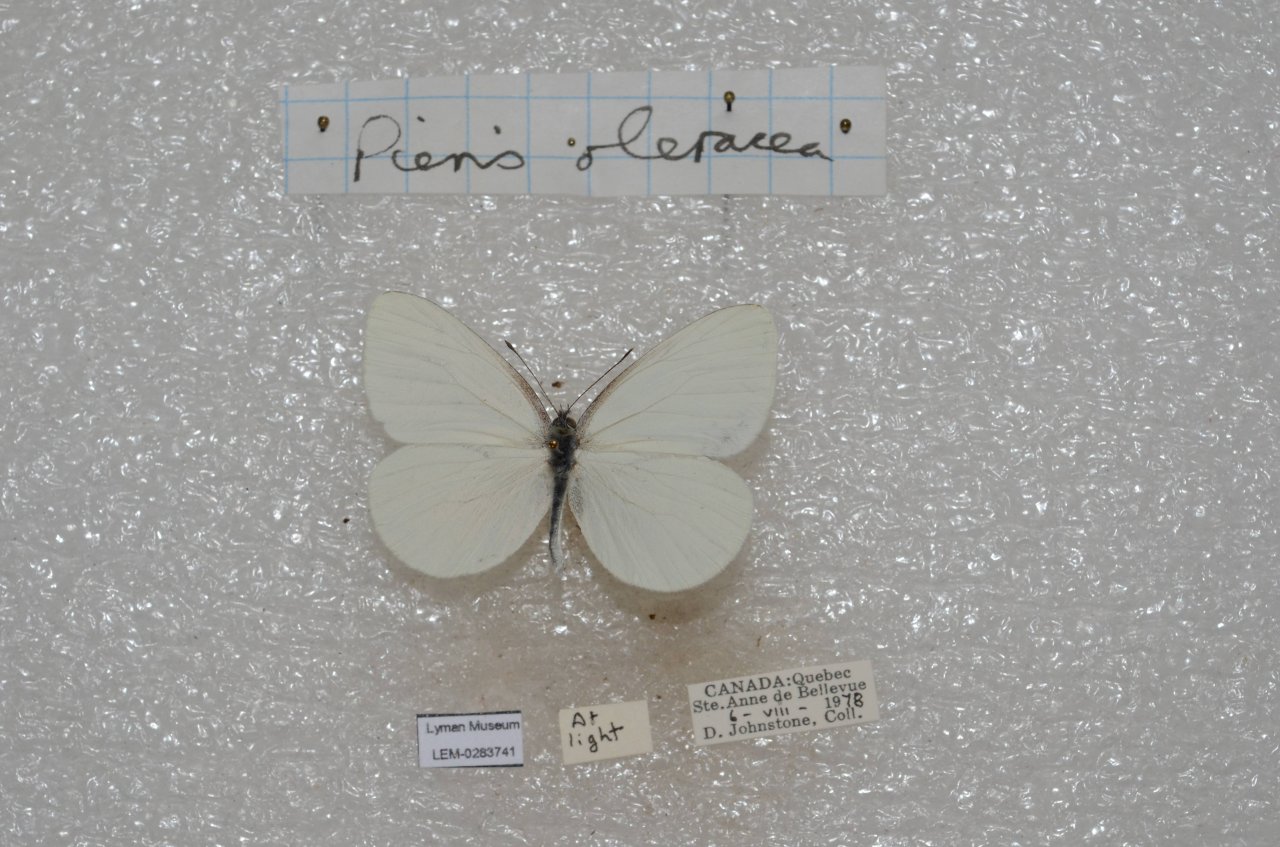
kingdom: Animalia
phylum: Arthropoda
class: Insecta
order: Lepidoptera
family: Pieridae
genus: Pieris
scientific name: Pieris oleracea
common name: Mustard White
